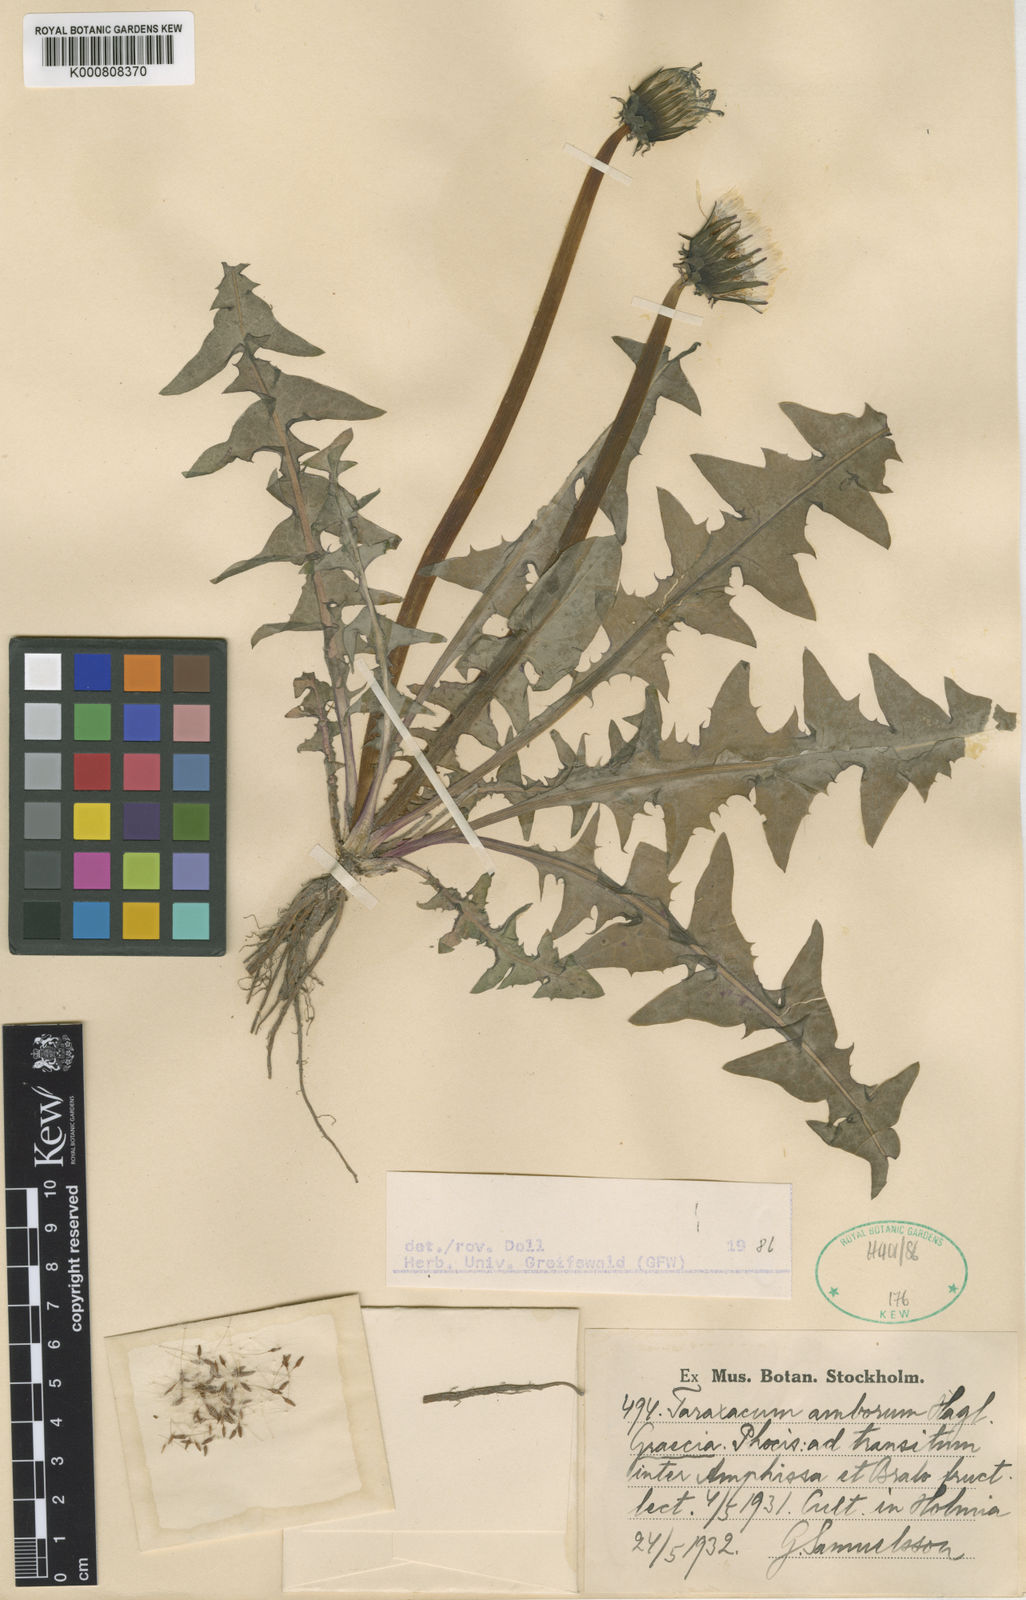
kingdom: Plantae
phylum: Tracheophyta
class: Magnoliopsida
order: Asterales
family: Asteraceae
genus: Taraxacum
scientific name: Taraxacum amborum
